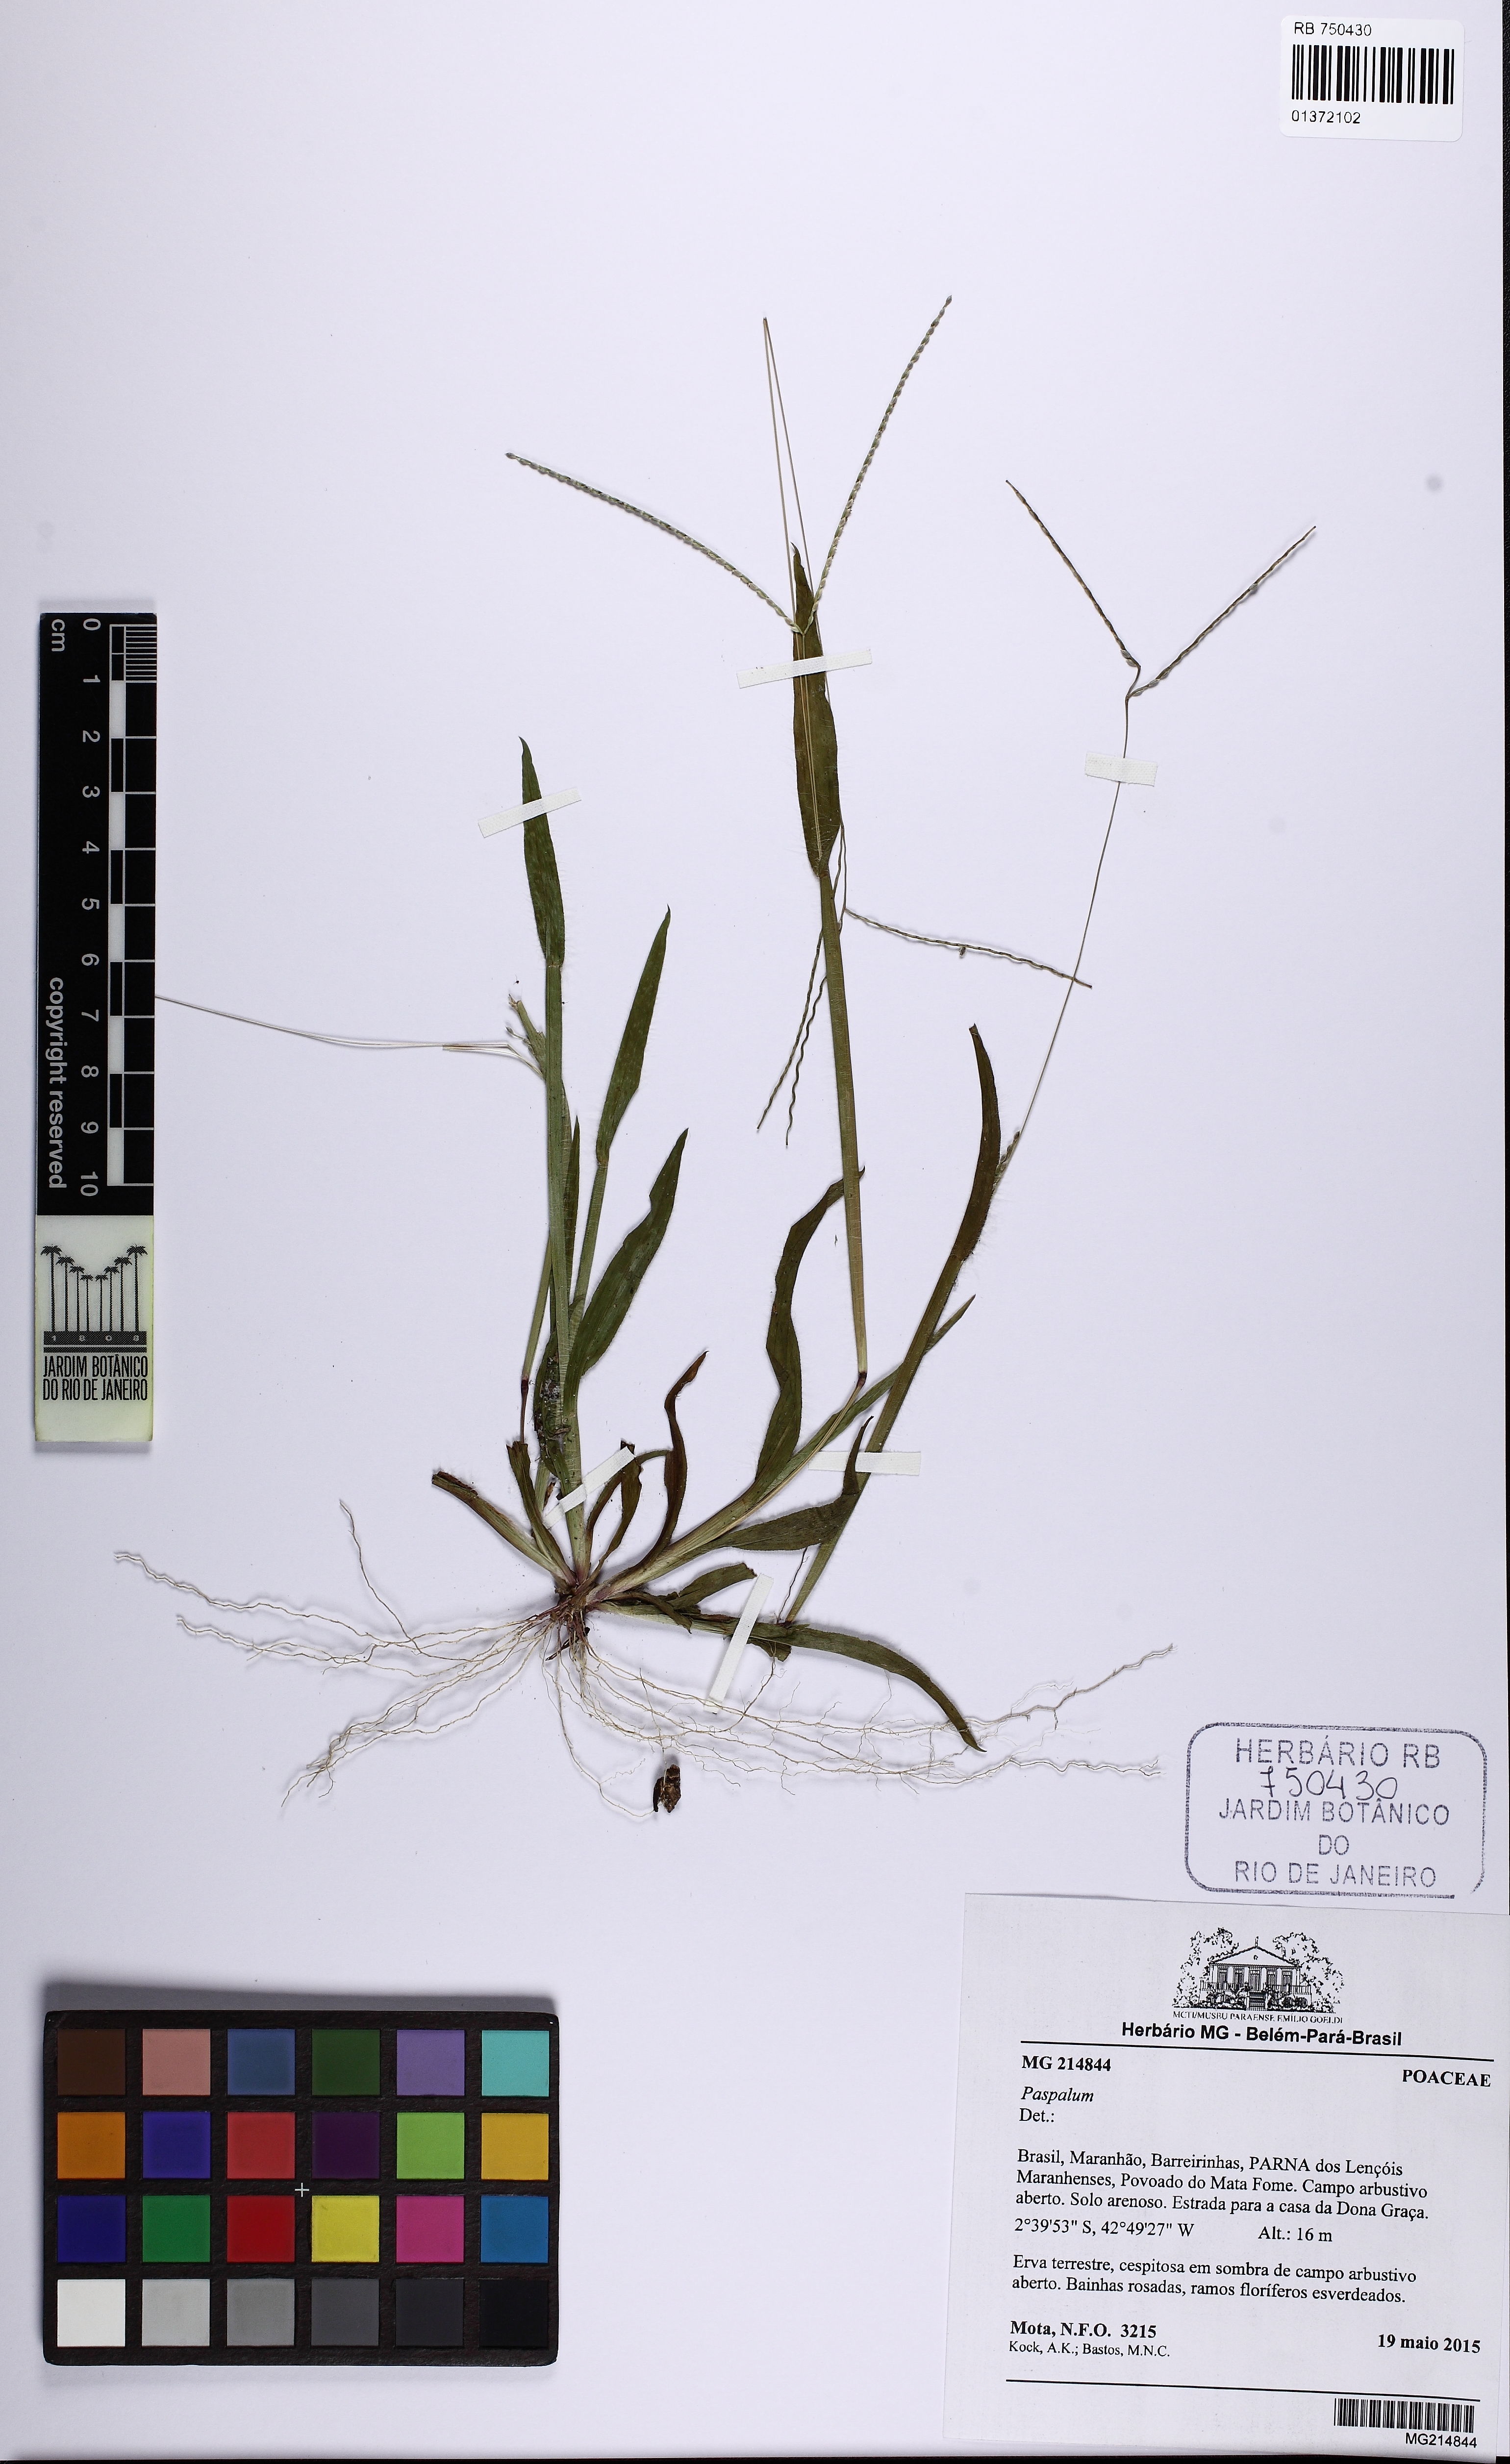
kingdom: Plantae
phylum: Tracheophyta
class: Liliopsida
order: Poales
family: Poaceae
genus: Paspalum
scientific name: Paspalum
